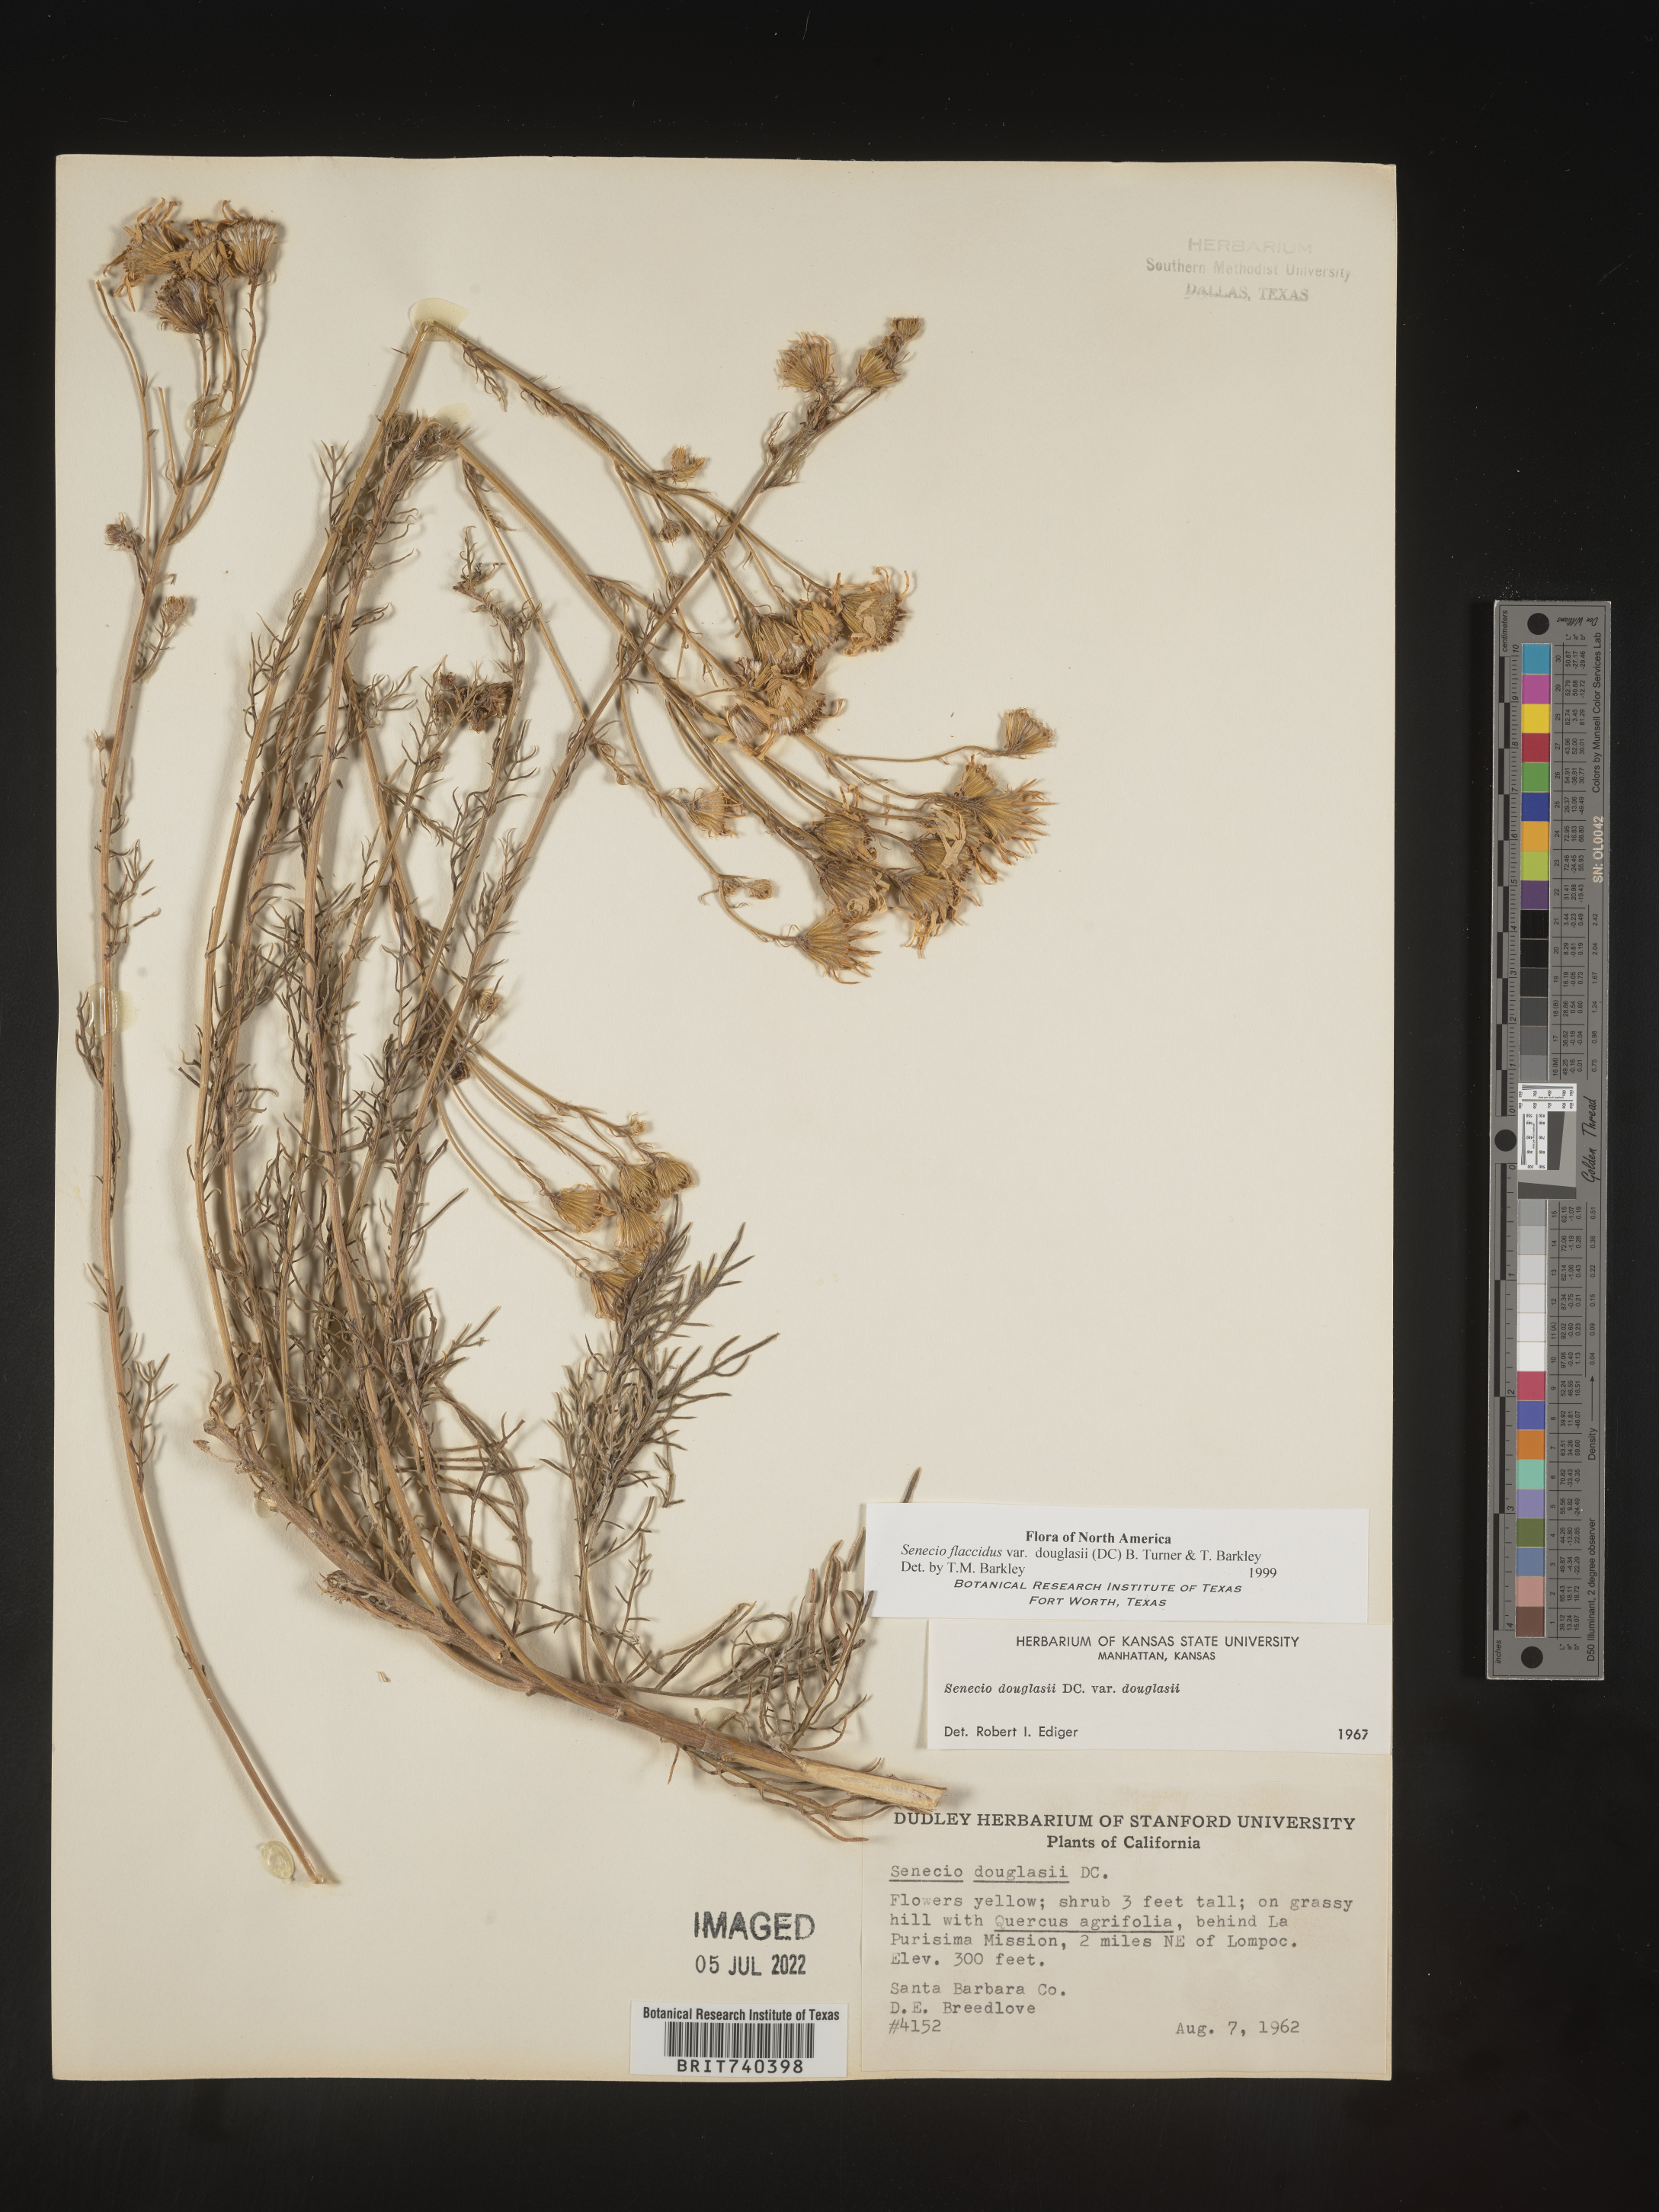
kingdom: Plantae
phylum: Tracheophyta
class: Magnoliopsida
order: Asterales
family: Asteraceae
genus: Senecio
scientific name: Senecio flaccidus
